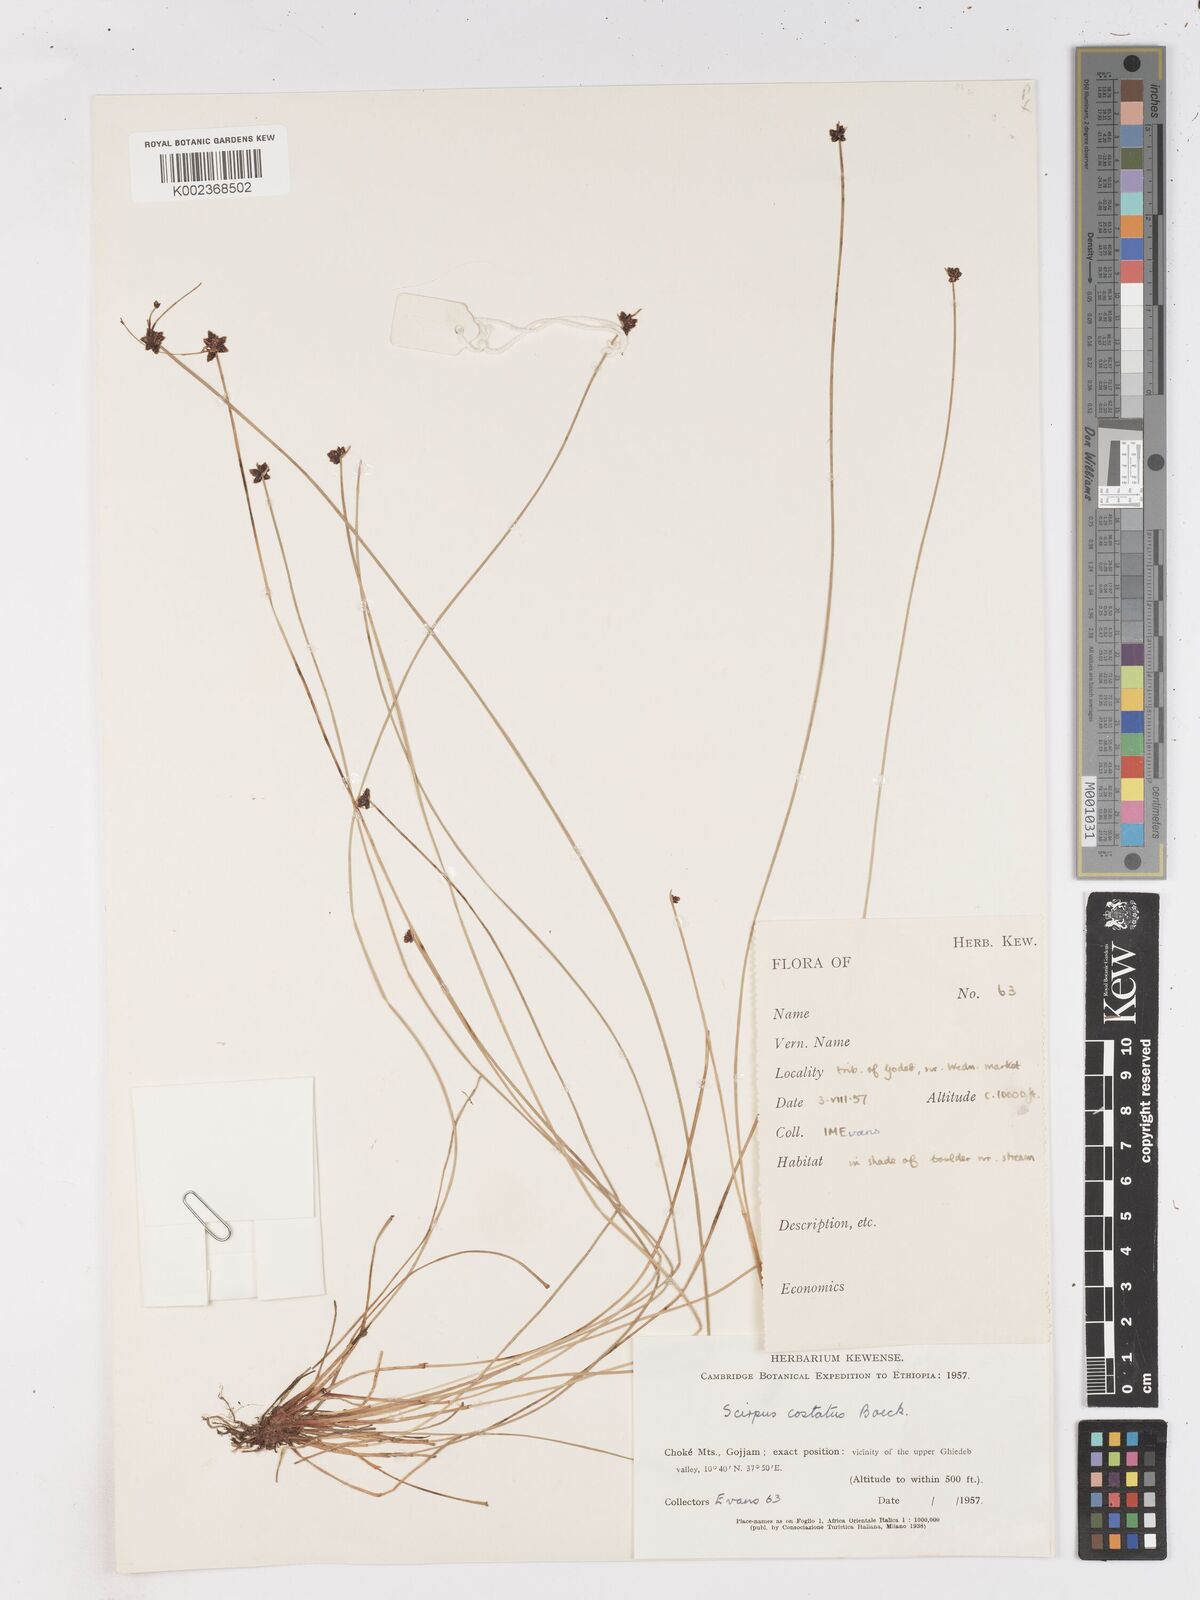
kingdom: Plantae
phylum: Tracheophyta
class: Liliopsida
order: Poales
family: Cyperaceae
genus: Isolepis
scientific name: Isolepis costata
